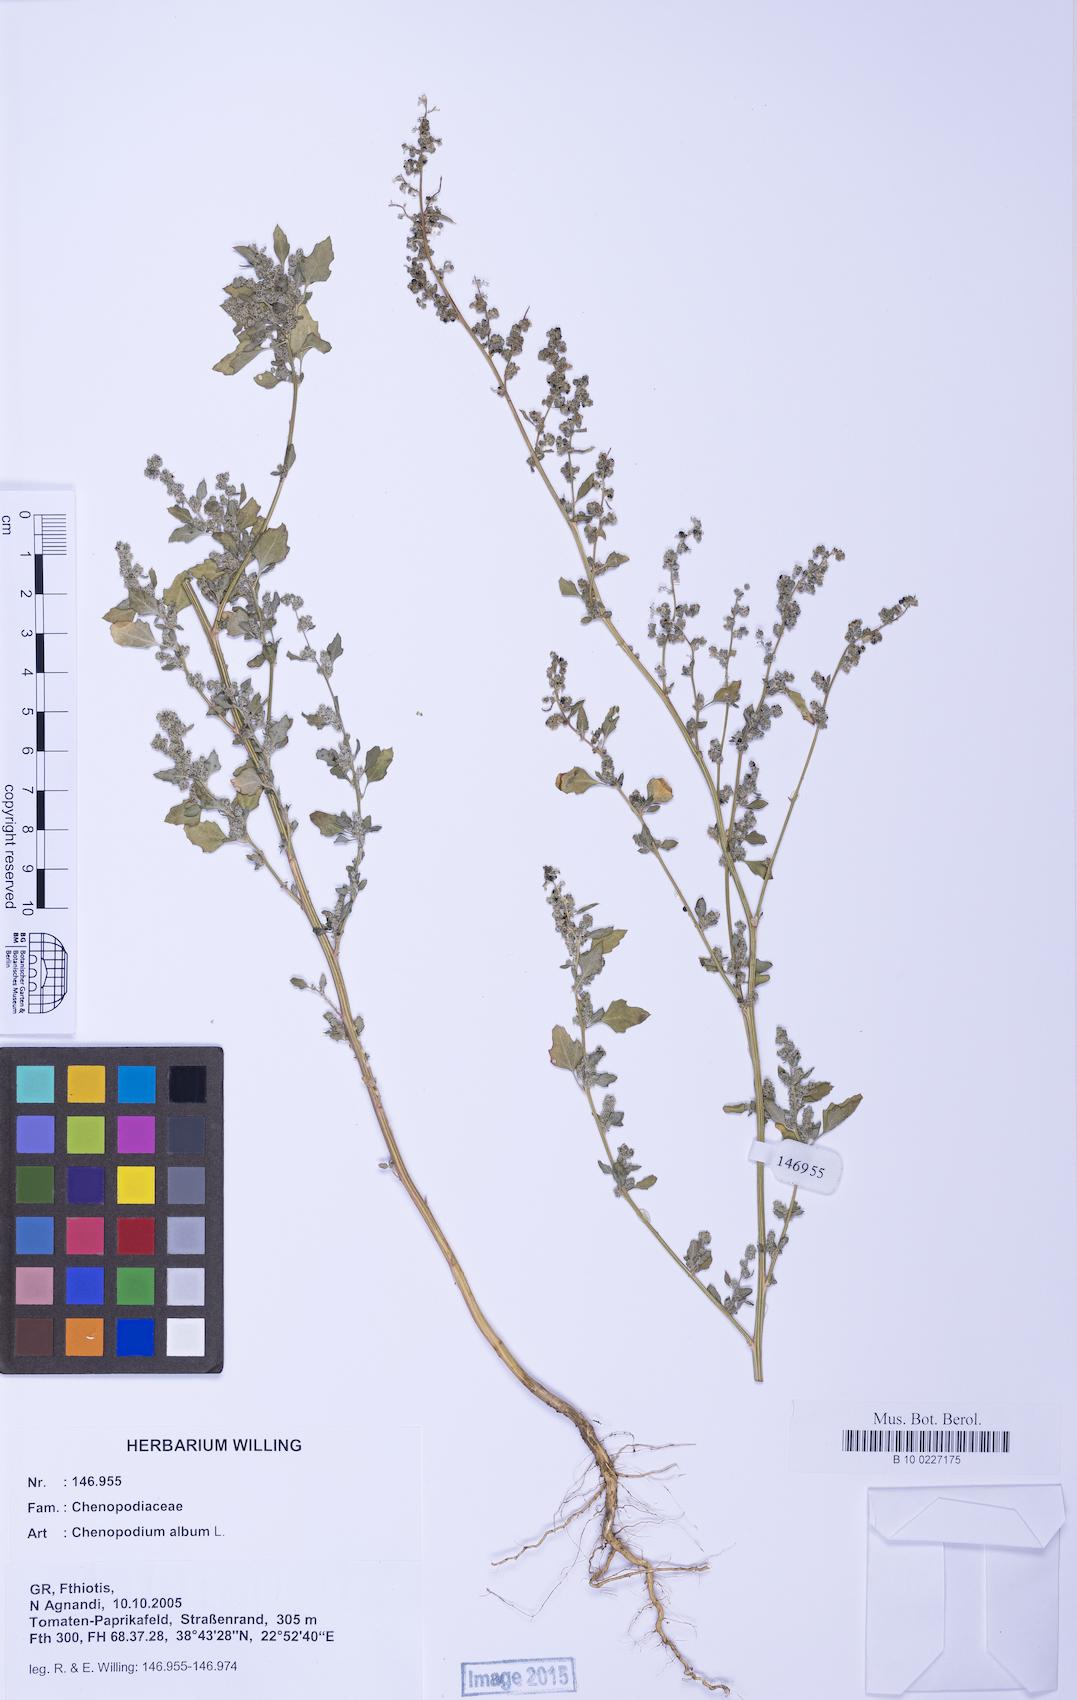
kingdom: Plantae
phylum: Tracheophyta
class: Magnoliopsida
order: Caryophyllales
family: Amaranthaceae
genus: Chenopodium
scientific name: Chenopodium album
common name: Fat-hen
